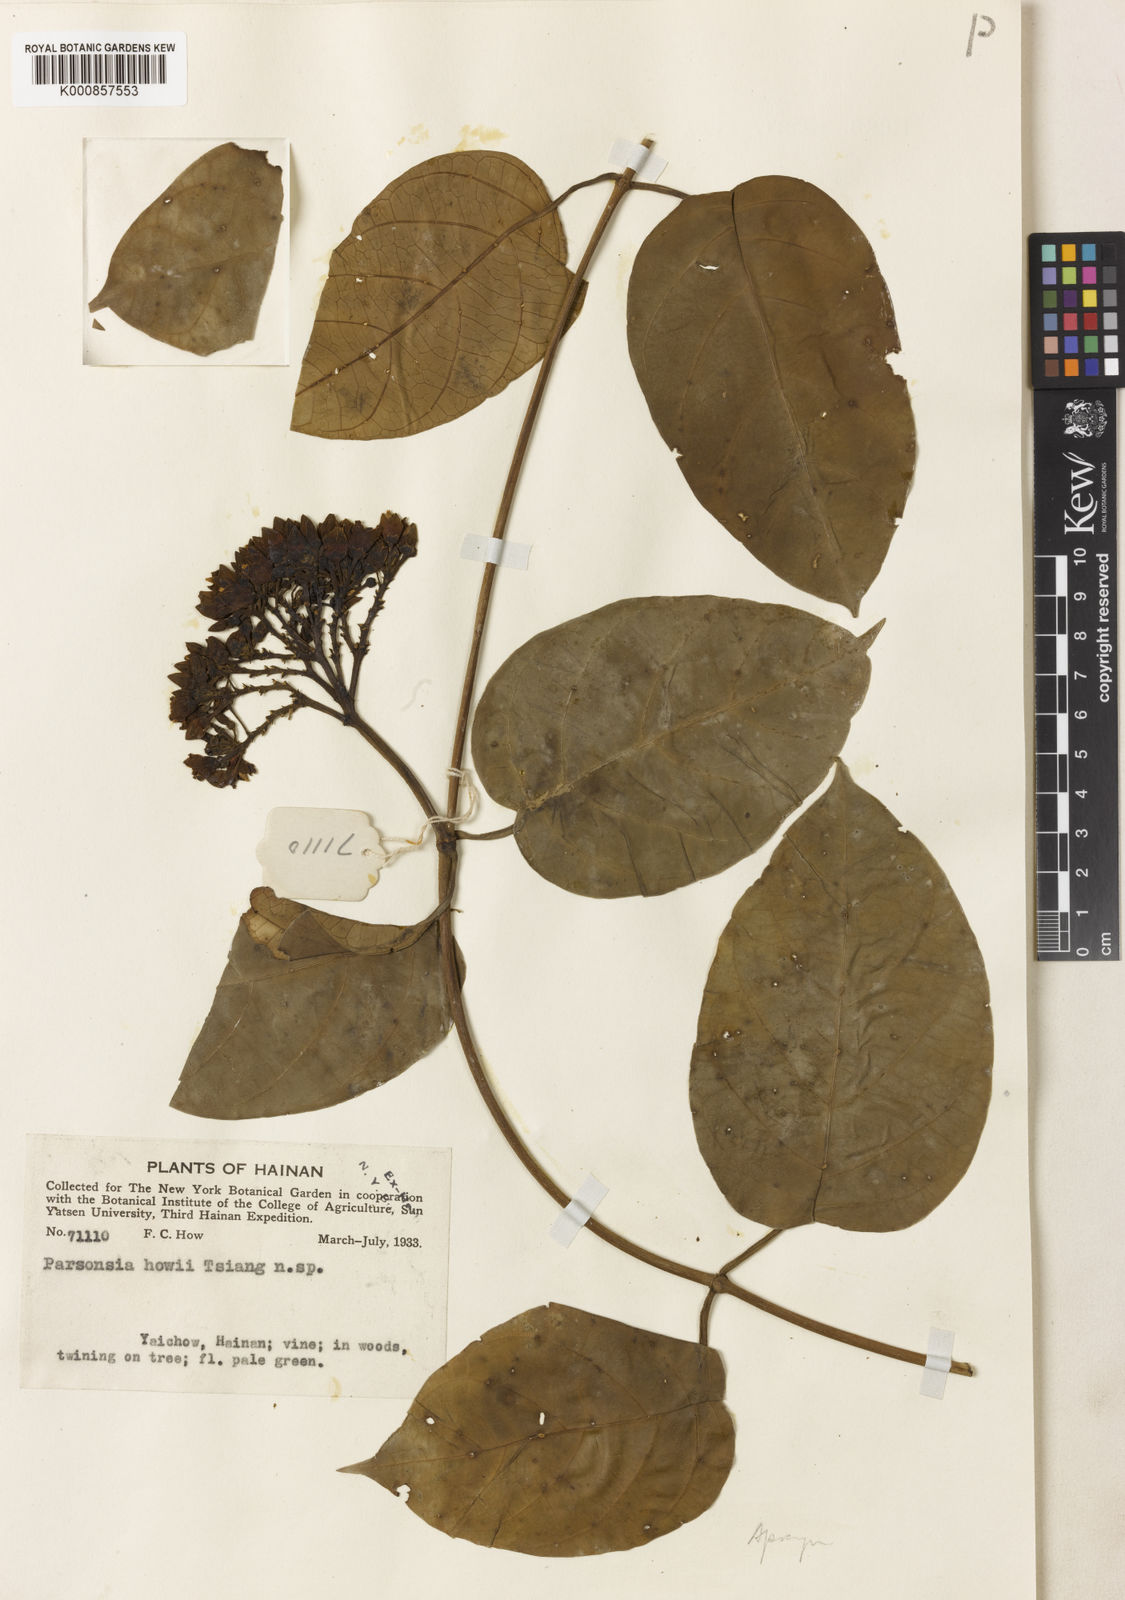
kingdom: Plantae
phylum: Tracheophyta
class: Magnoliopsida
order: Gentianales
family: Apocynaceae
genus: Parsonsia
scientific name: Parsonsia alboflavescens
